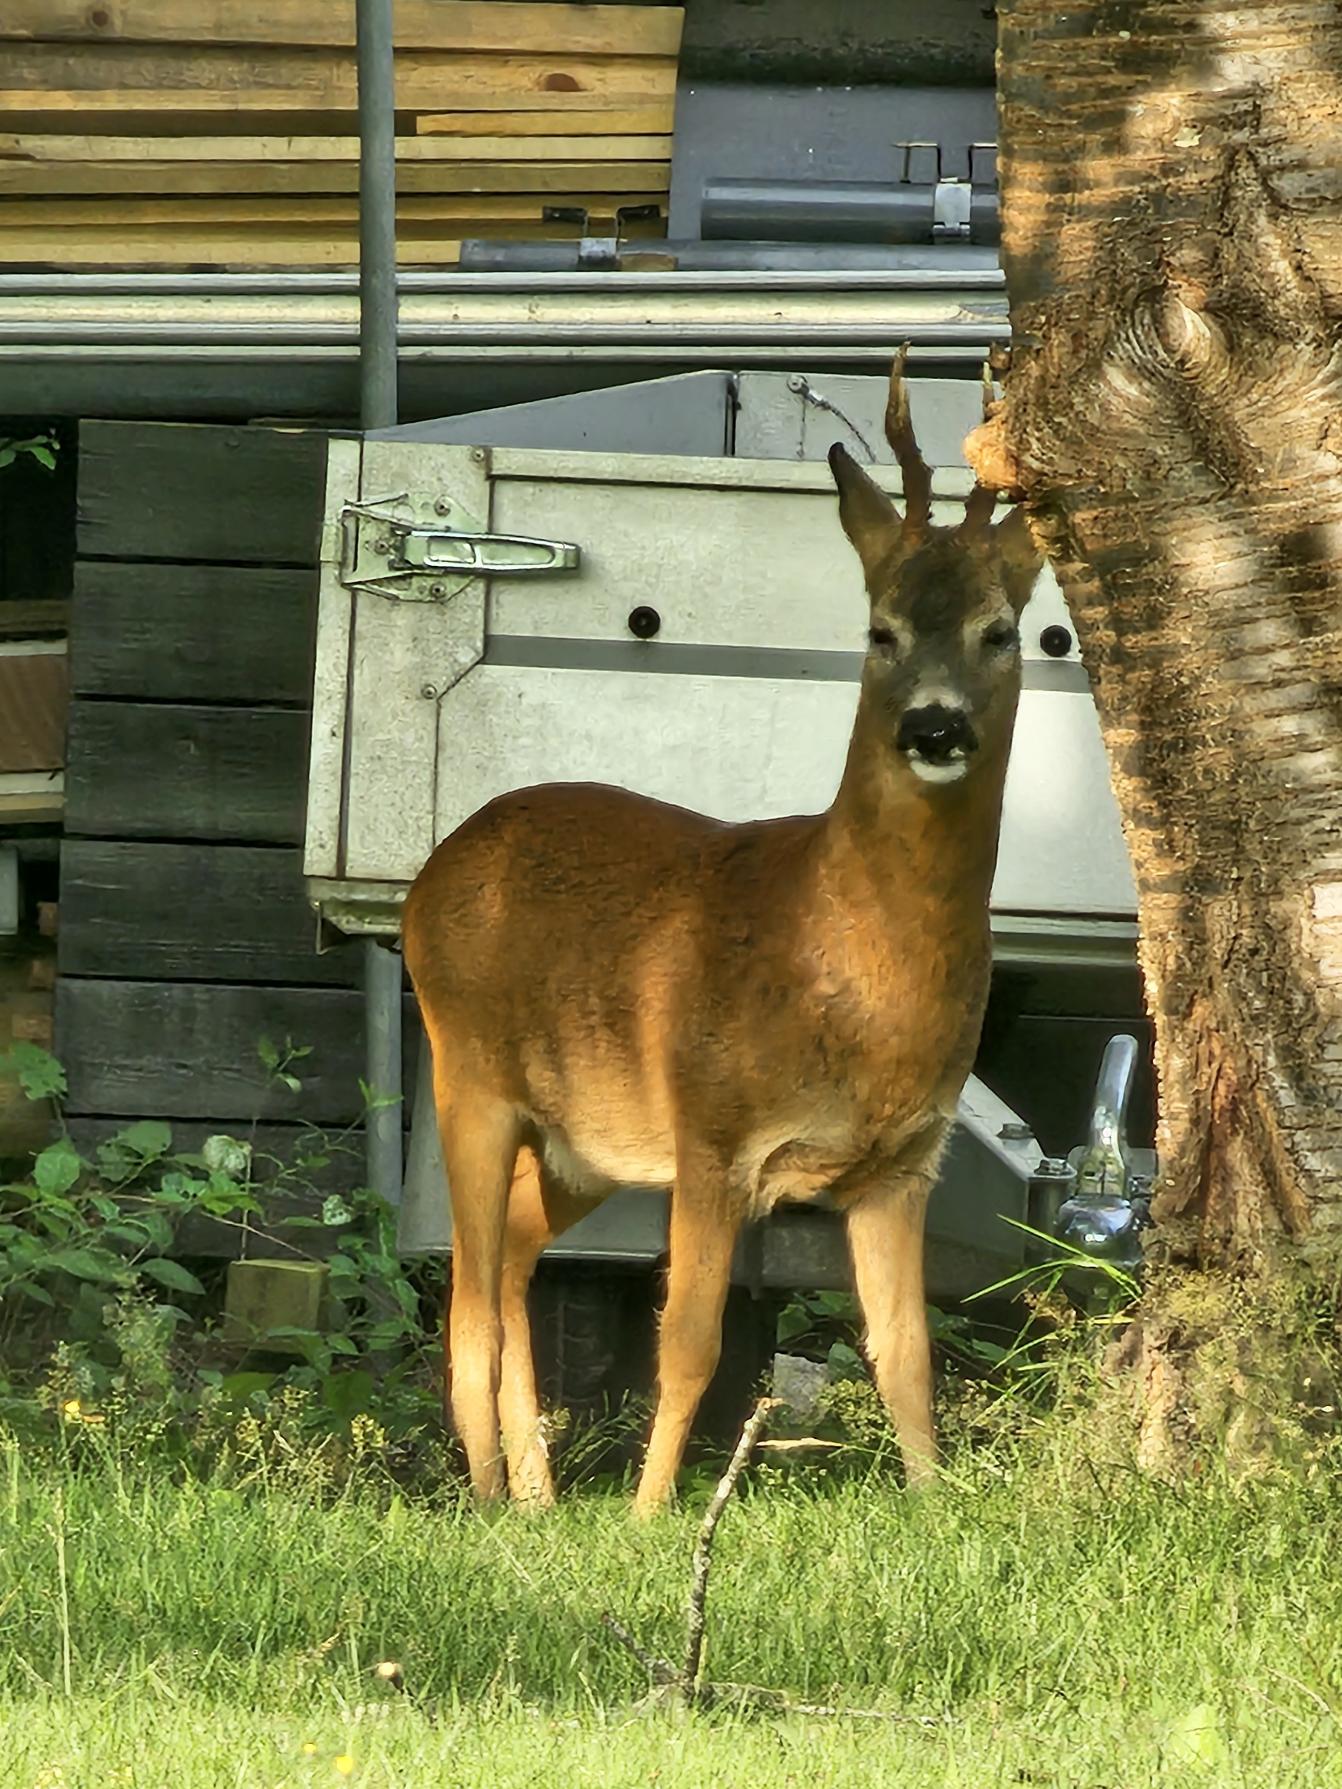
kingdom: Animalia
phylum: Chordata
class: Mammalia
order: Artiodactyla
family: Cervidae
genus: Capreolus
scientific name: Capreolus capreolus
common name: Rådyr
